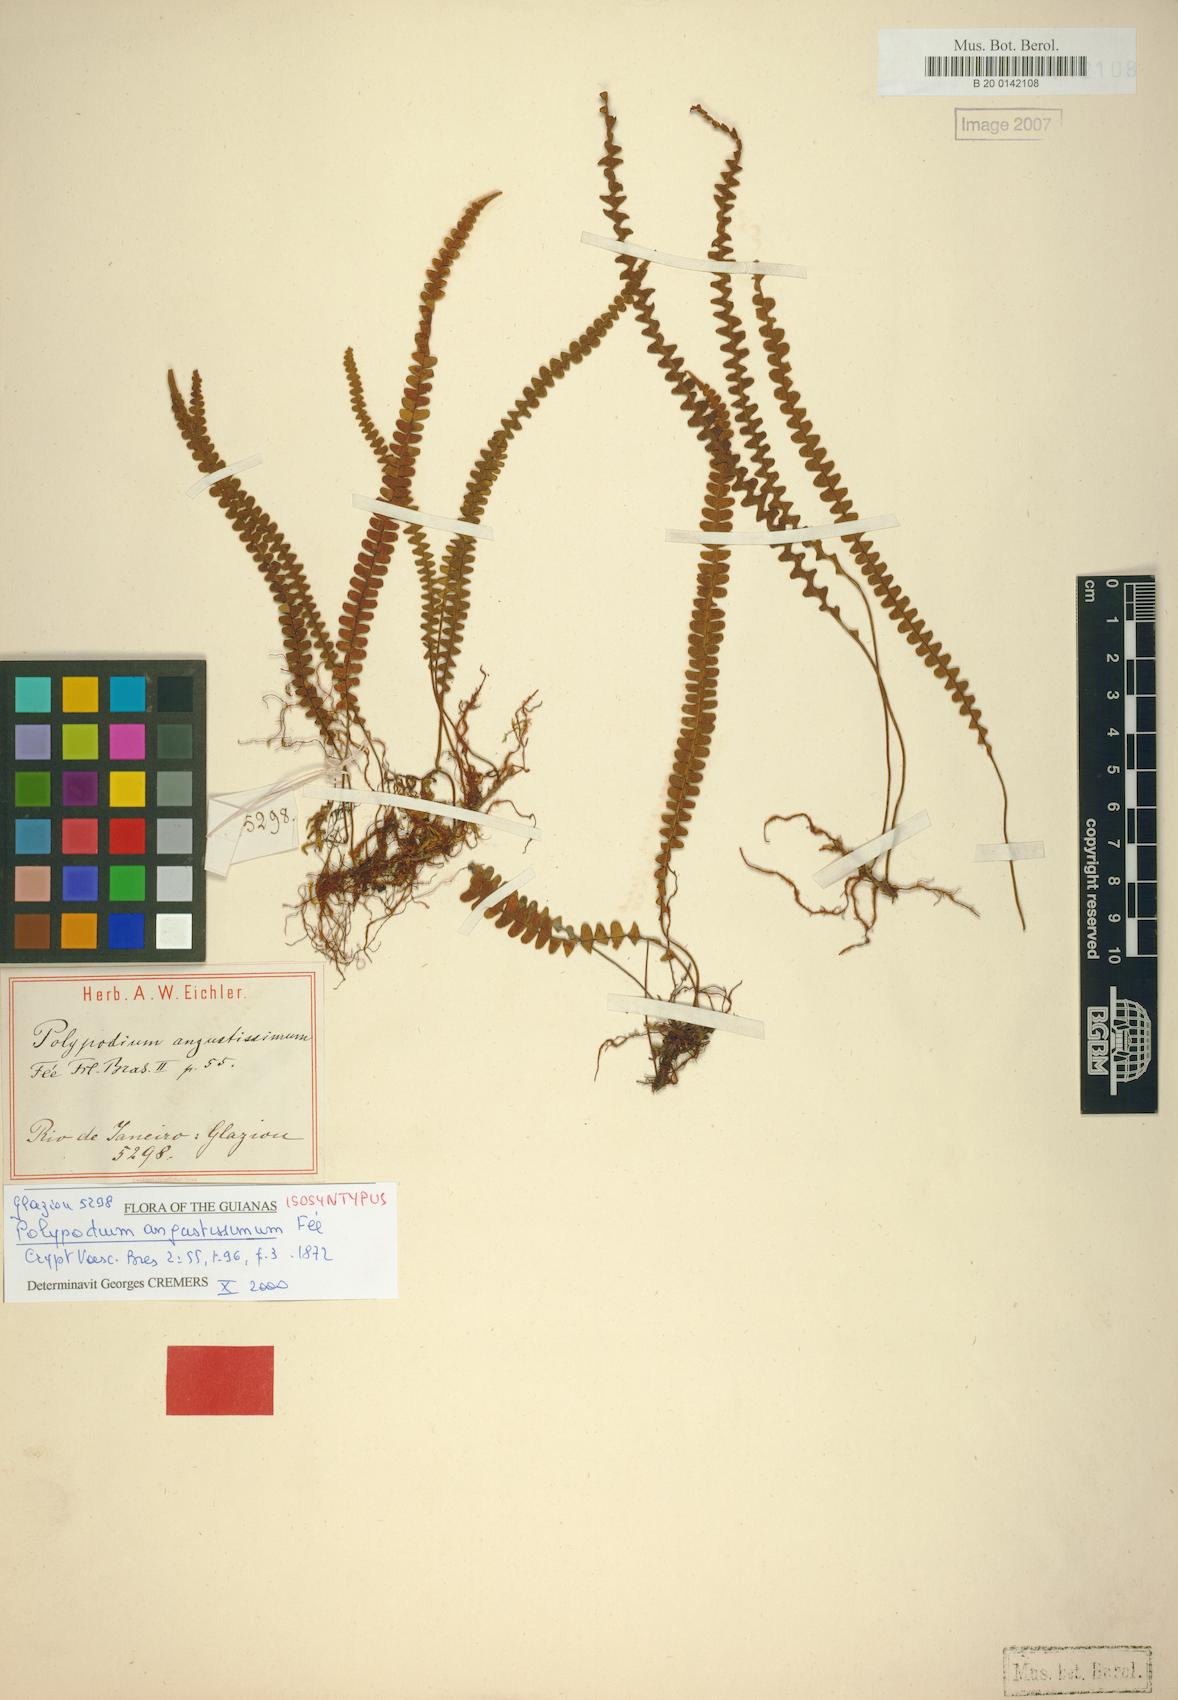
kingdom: Plantae
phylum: Tracheophyta
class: Polypodiopsida
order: Polypodiales
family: Polypodiaceae
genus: Melpomene
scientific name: Melpomene moniliformis
